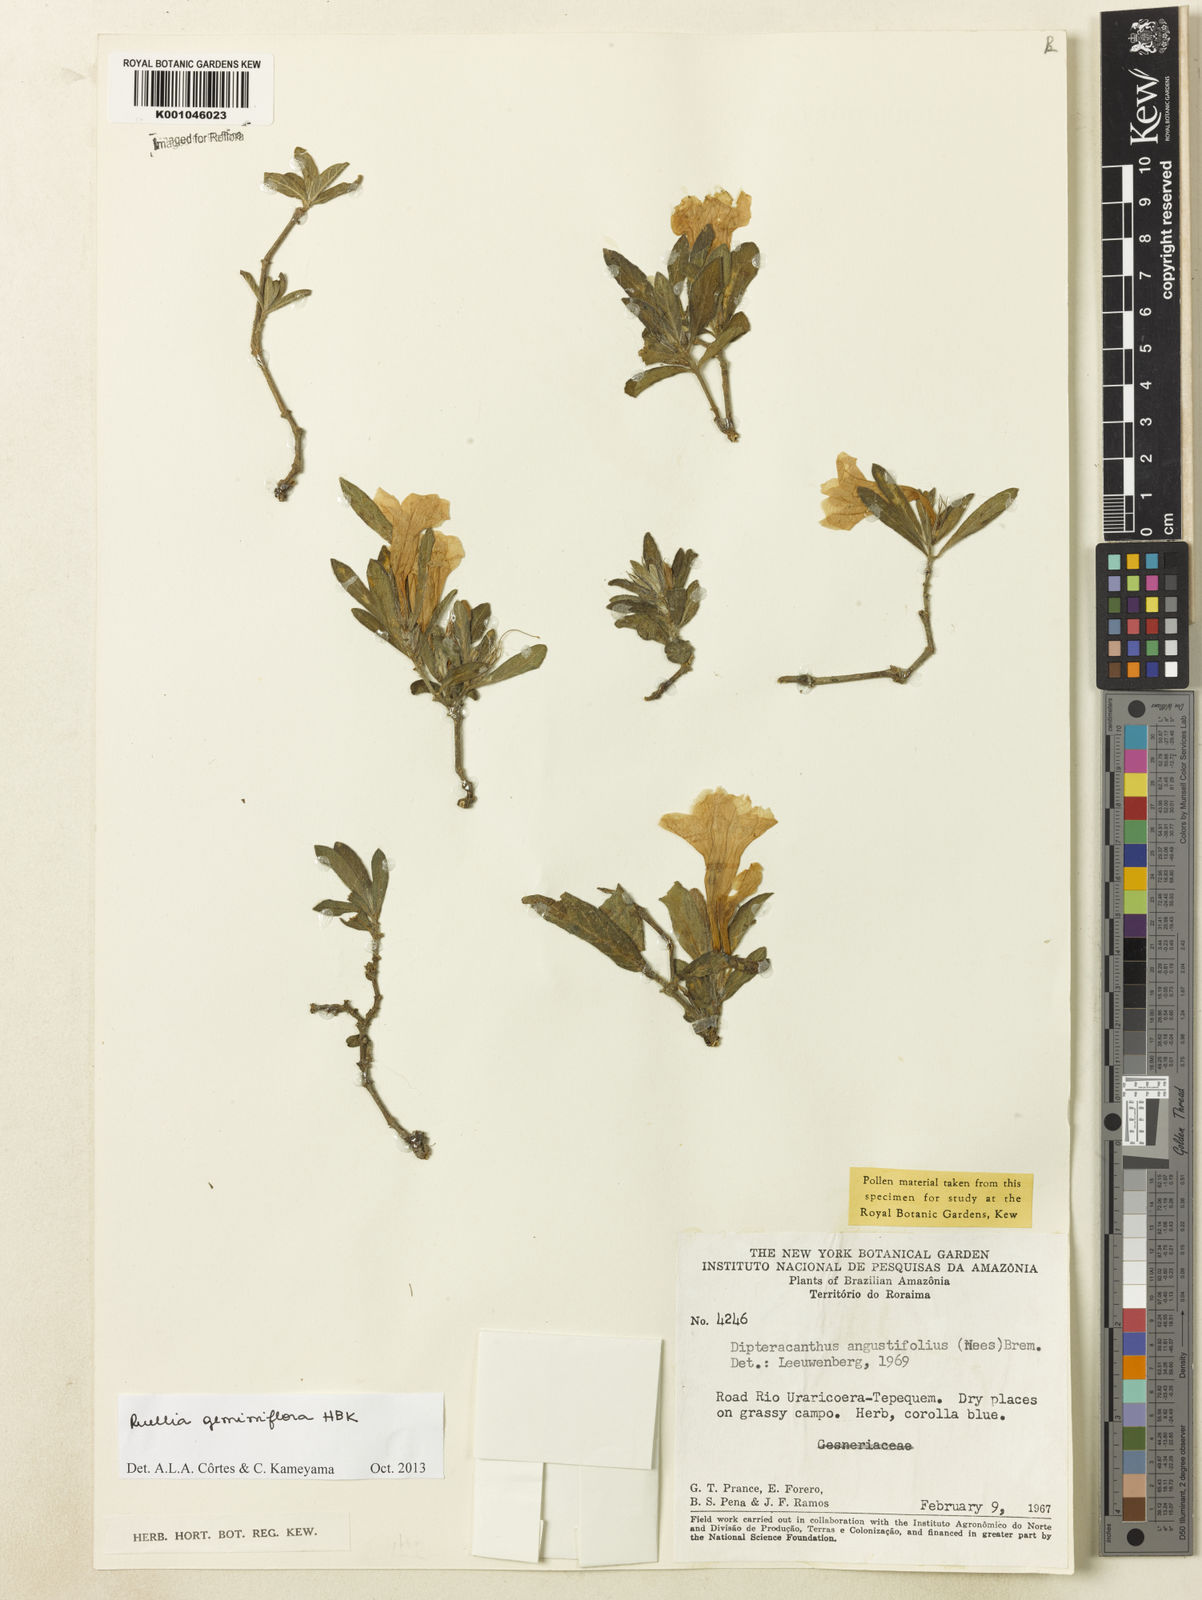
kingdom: Plantae
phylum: Tracheophyta
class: Magnoliopsida
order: Lamiales
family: Acanthaceae
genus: Ruellia
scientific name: Ruellia geminiflora
